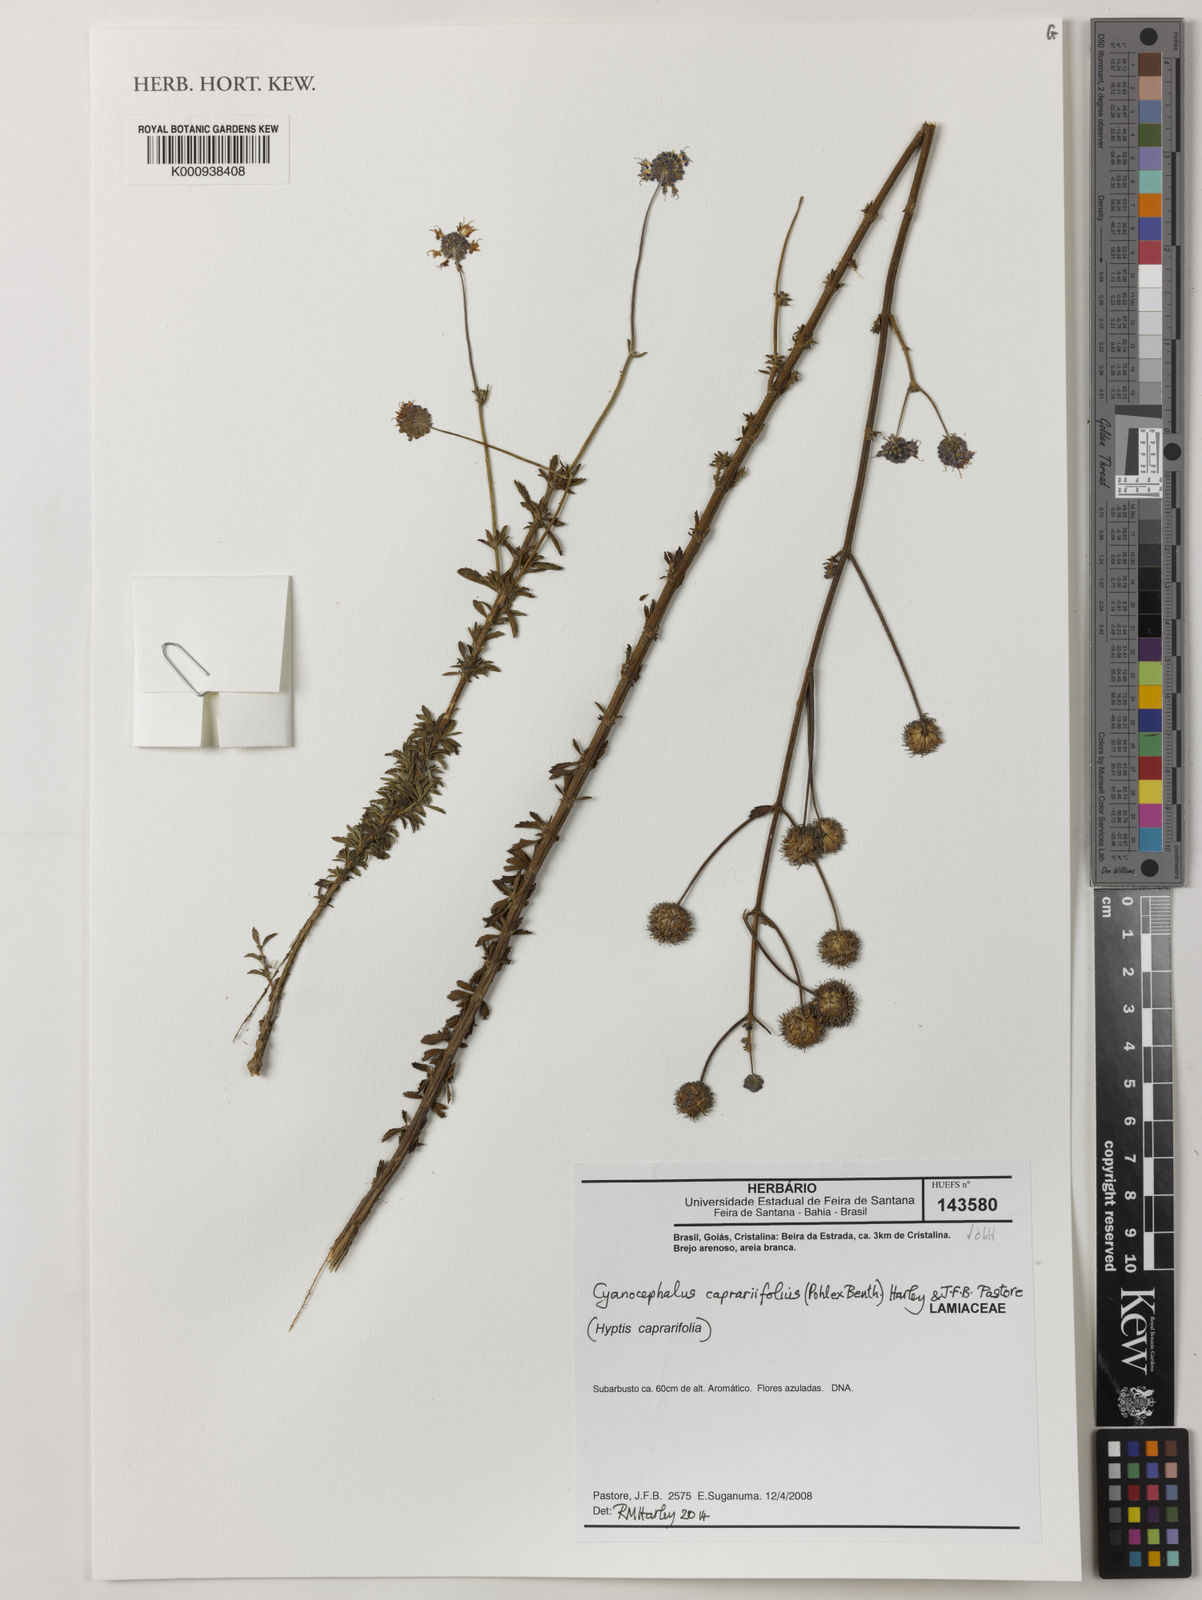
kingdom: Plantae
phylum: Tracheophyta
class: Magnoliopsida
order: Lamiales
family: Lamiaceae
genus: Cyanocephalus
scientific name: Cyanocephalus caprariifolius
